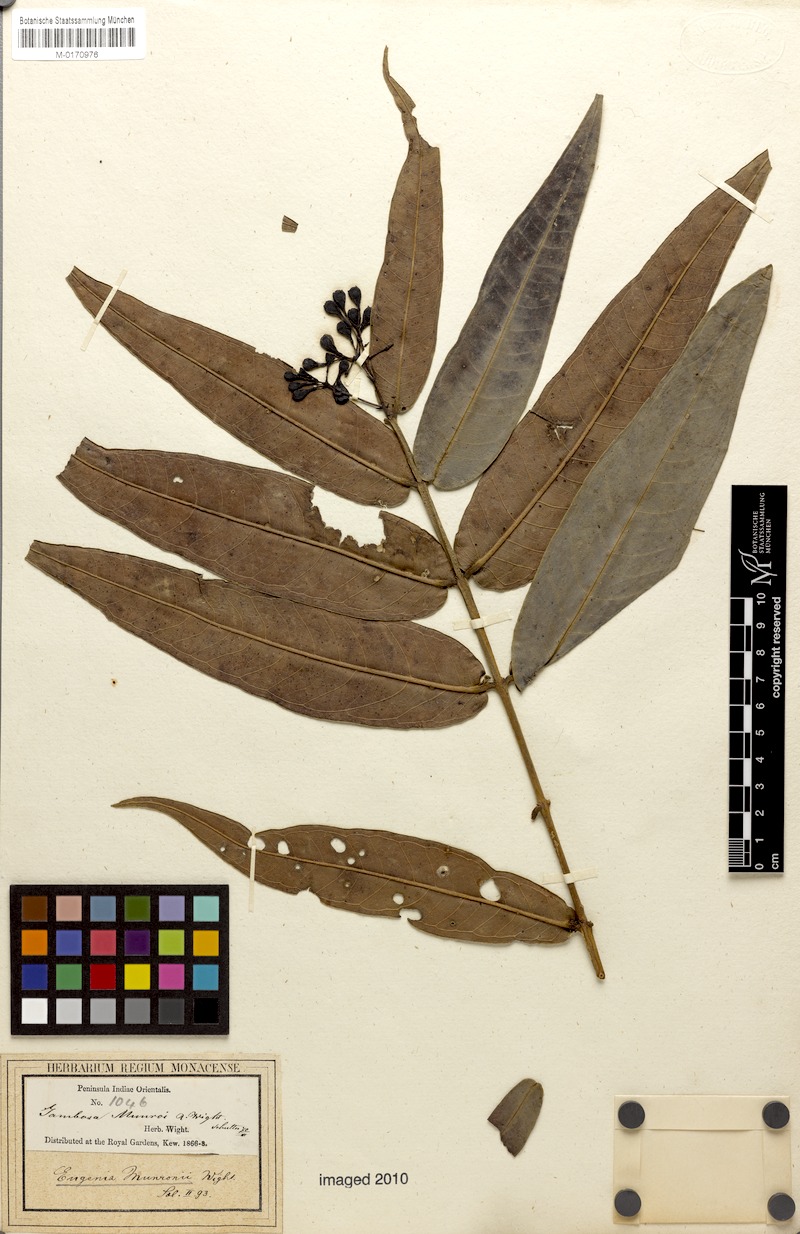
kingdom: Plantae
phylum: Tracheophyta
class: Magnoliopsida
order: Myrtales
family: Myrtaceae
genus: Syzygium
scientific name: Syzygium munronii
